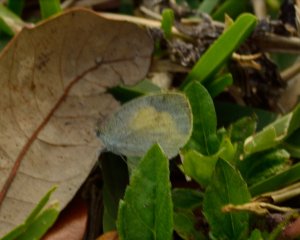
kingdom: Animalia
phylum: Arthropoda
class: Insecta
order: Lepidoptera
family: Pieridae
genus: Eurema
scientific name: Eurema daira
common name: Barred Yellow
